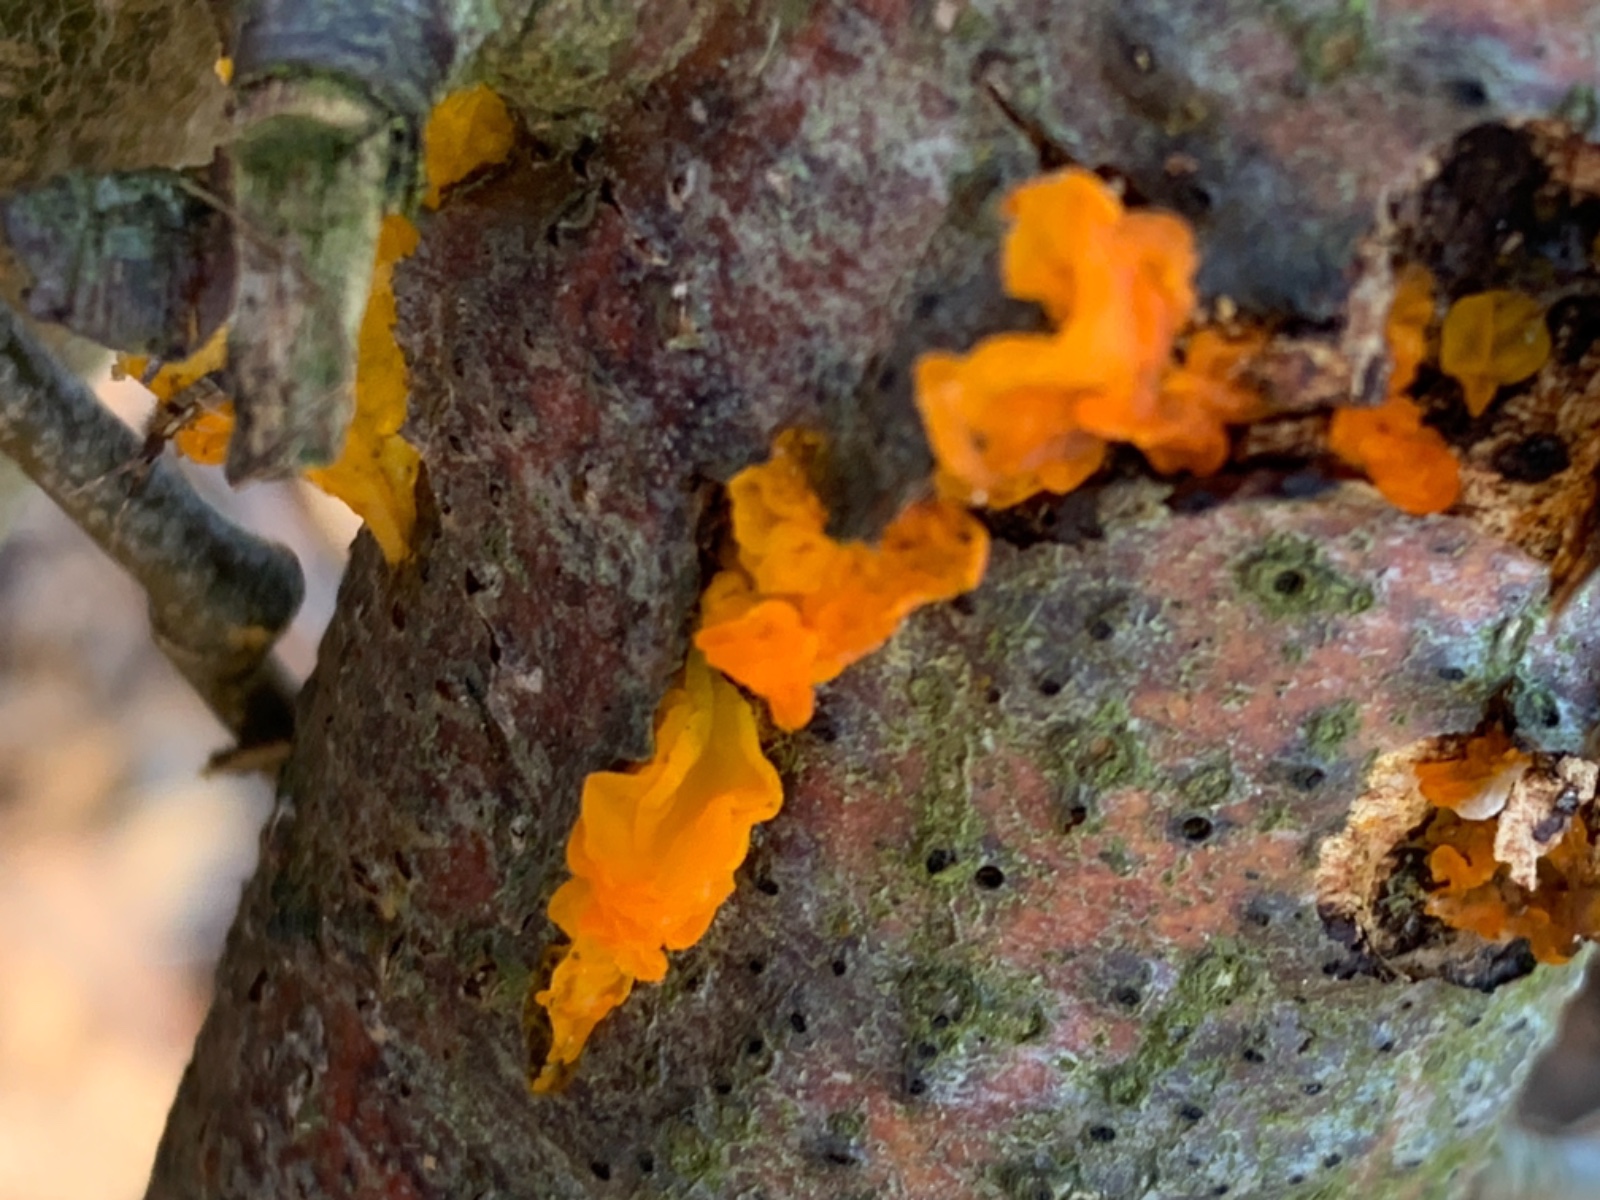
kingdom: Fungi
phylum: Basidiomycota
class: Tremellomycetes
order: Tremellales
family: Tremellaceae
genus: Tremella
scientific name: Tremella mesenterica
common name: gul bævresvamp
